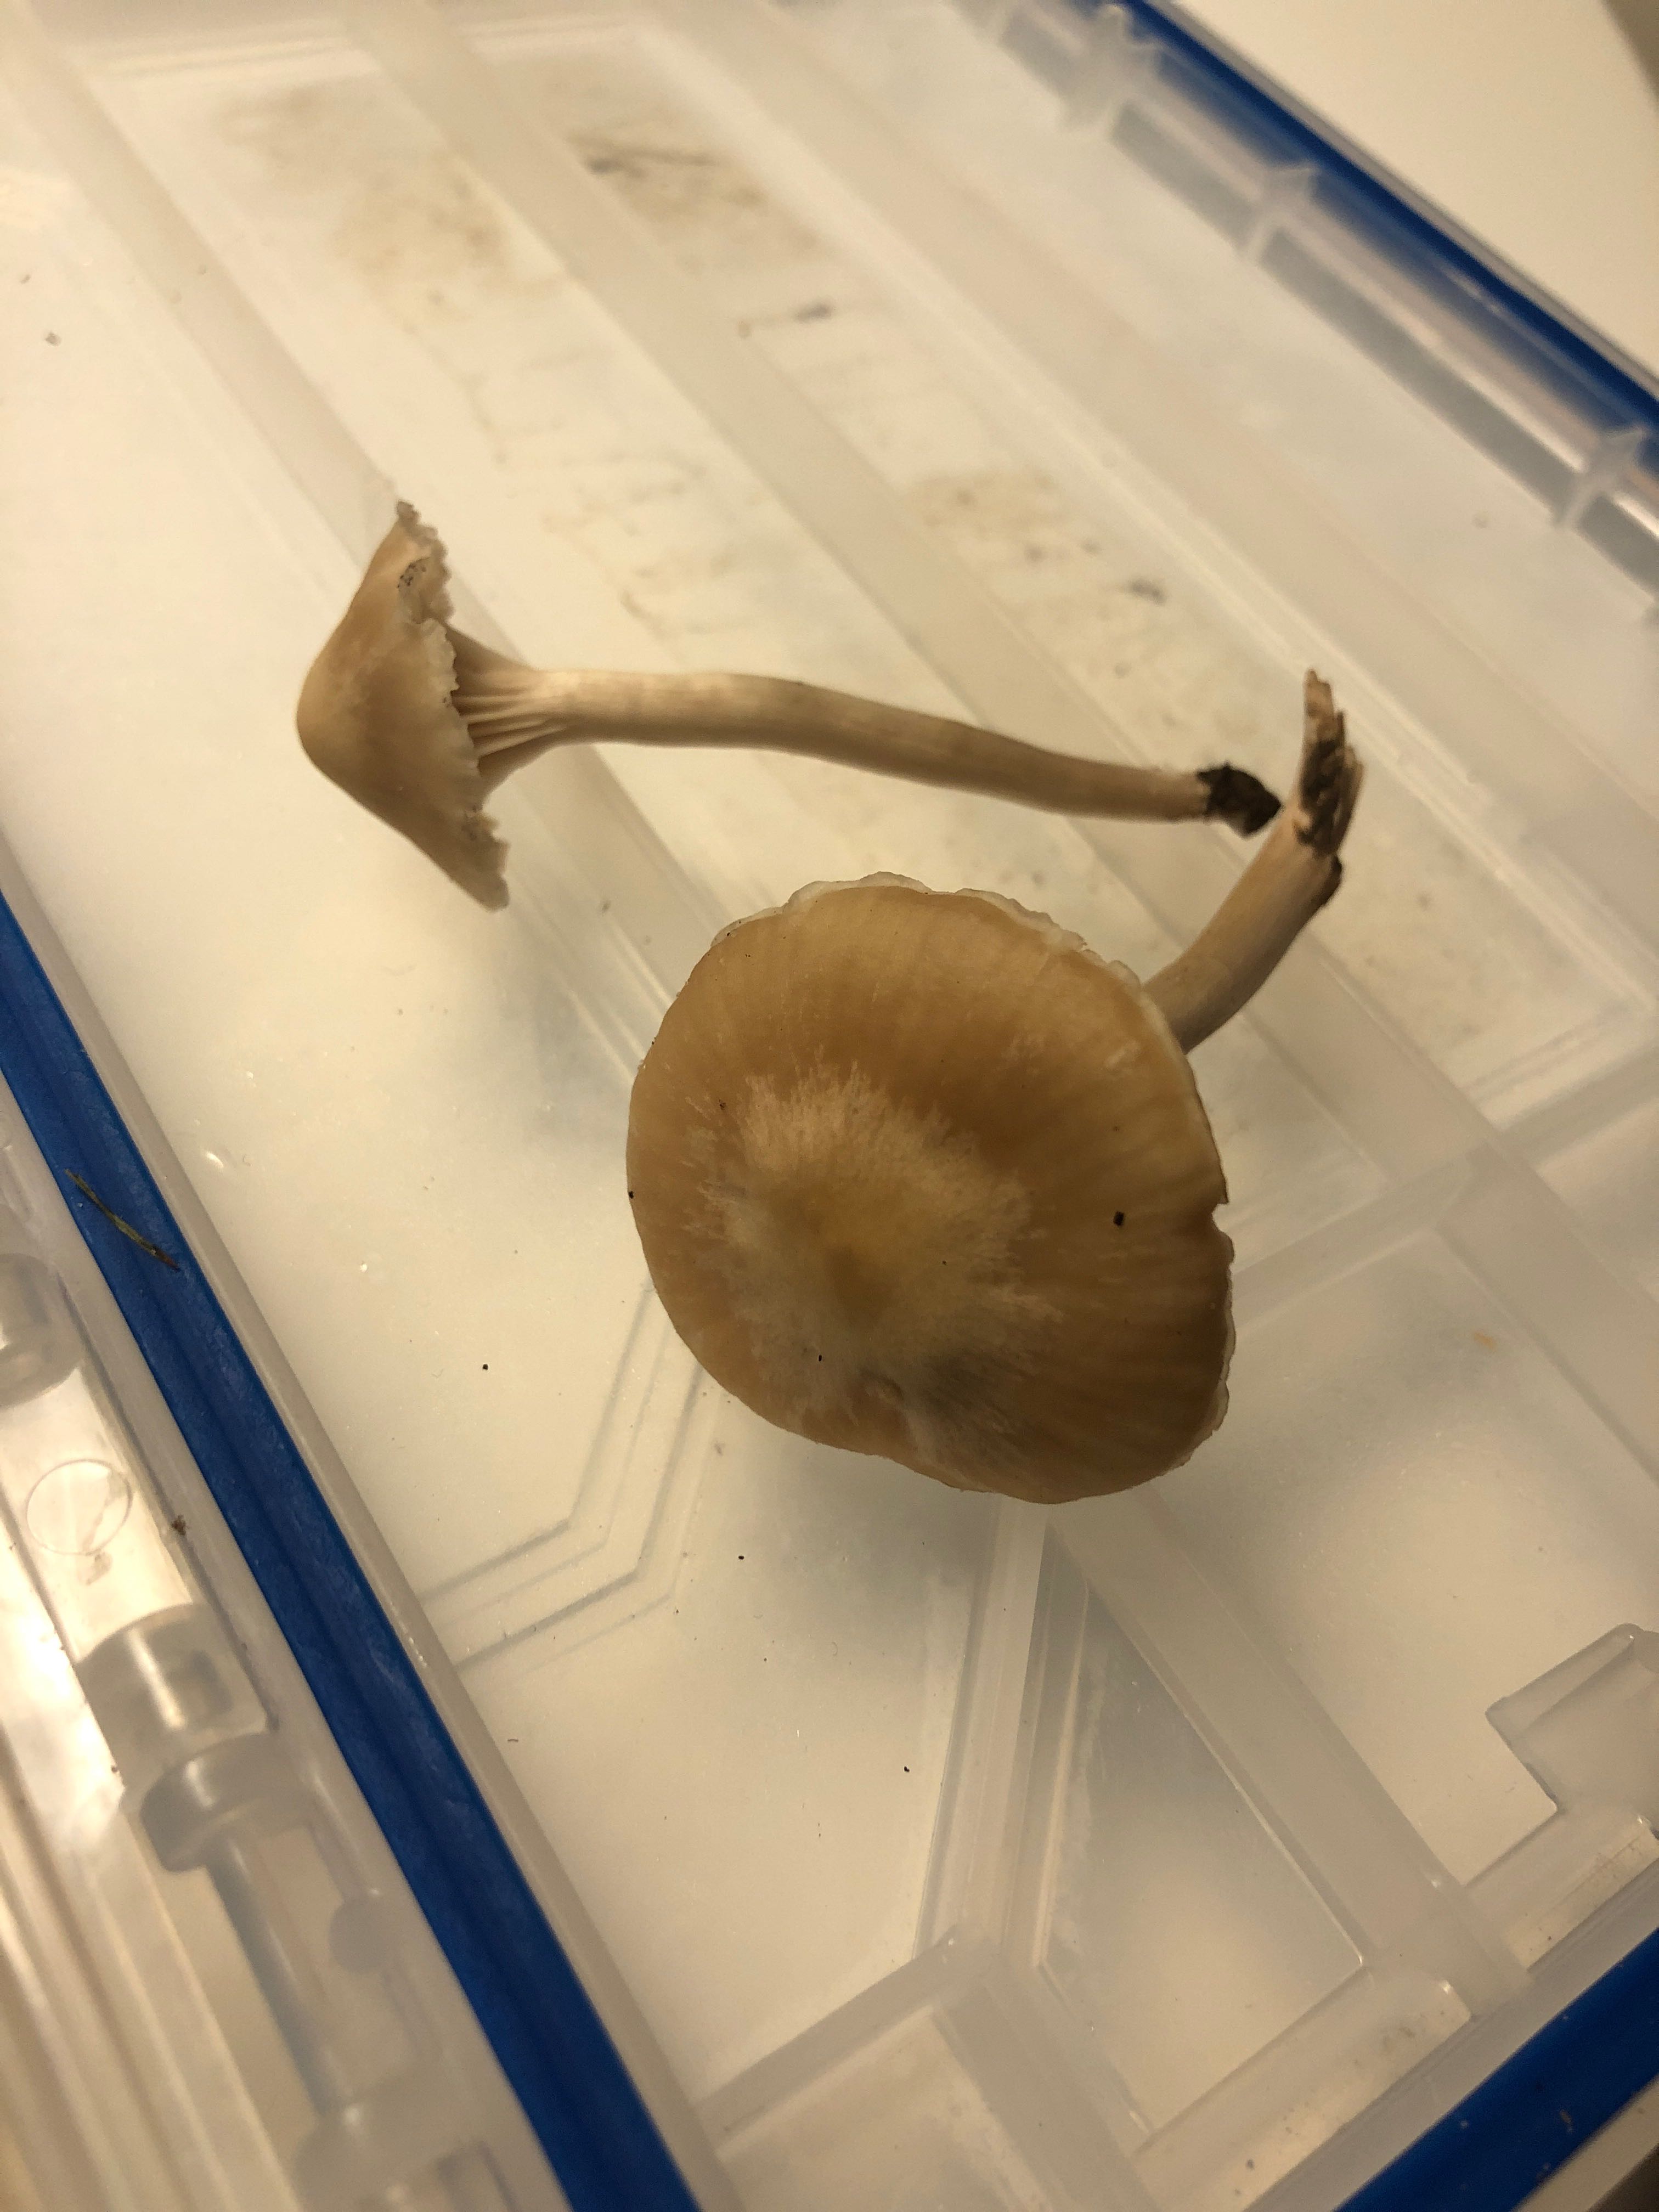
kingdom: Fungi
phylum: Basidiomycota
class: Agaricomycetes
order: Agaricales
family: Hygrophoraceae
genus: Cuphophyllus
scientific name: Cuphophyllus russocoriaceus
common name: ruslæder-vokshat
